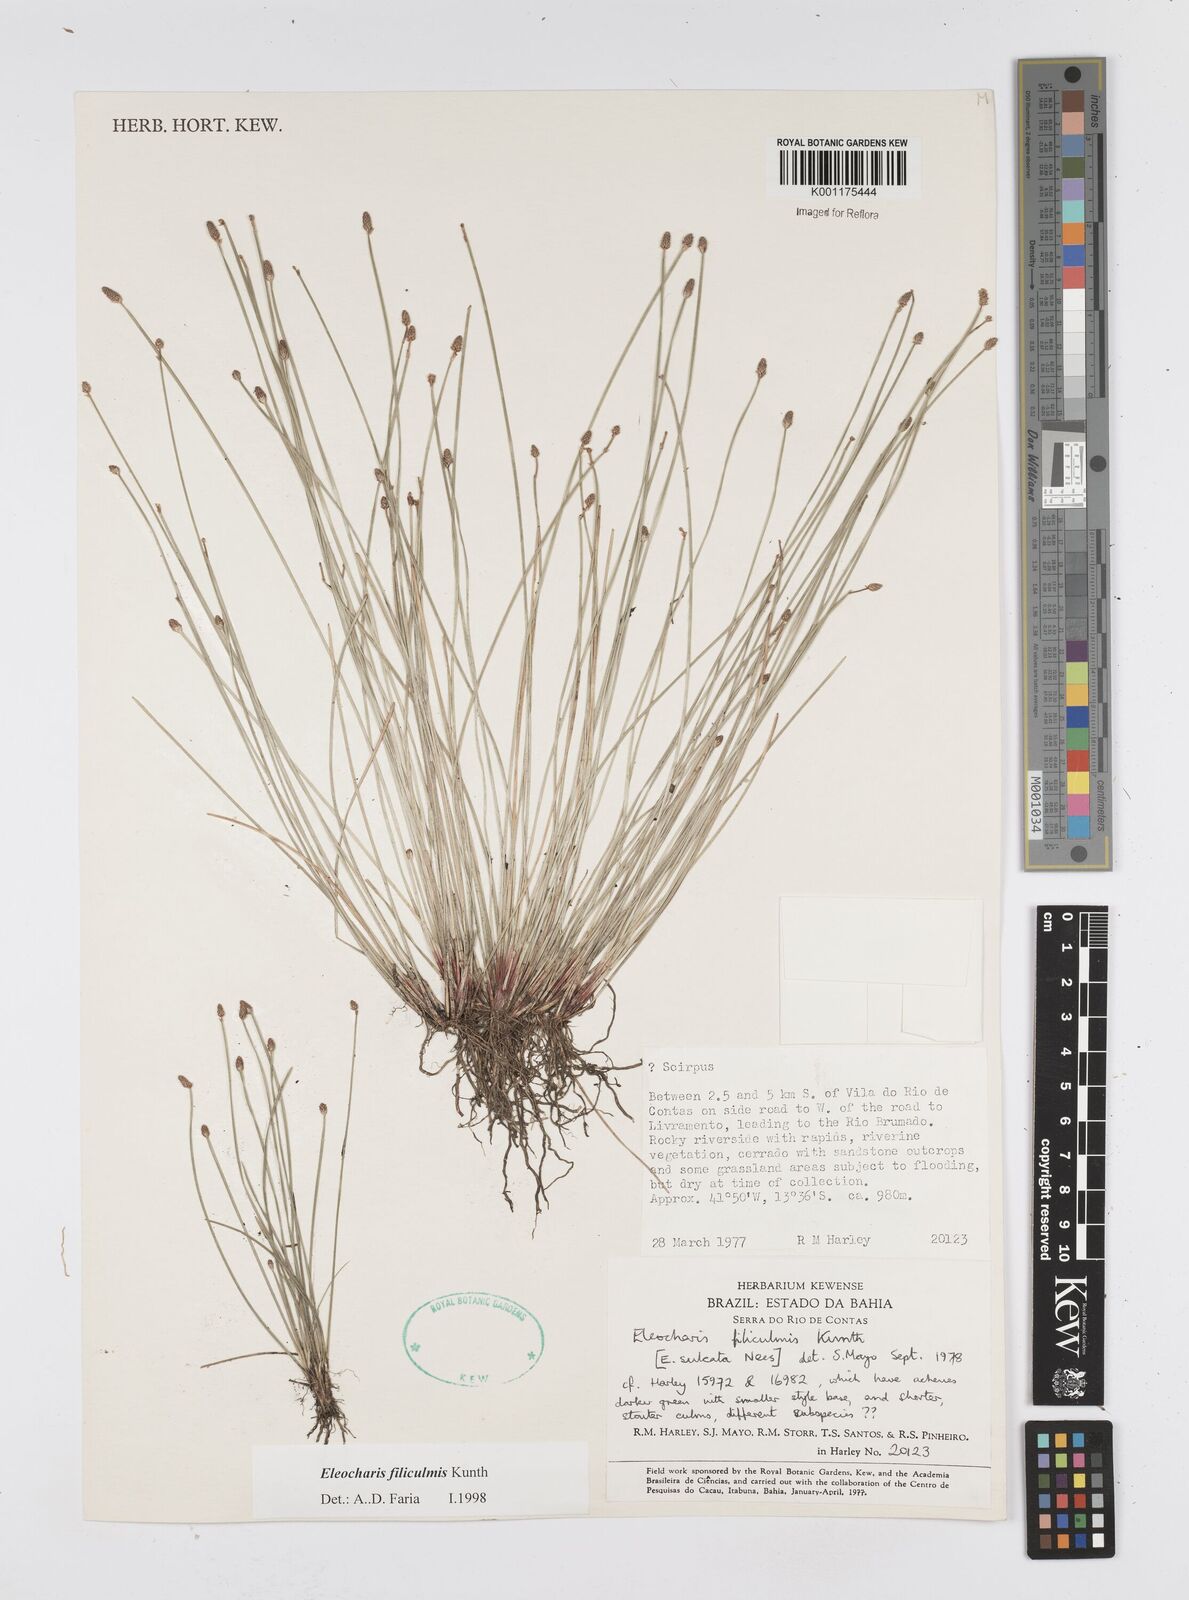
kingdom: Plantae
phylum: Tracheophyta
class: Liliopsida
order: Poales
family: Cyperaceae
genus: Eleocharis
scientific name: Eleocharis filiculmis
